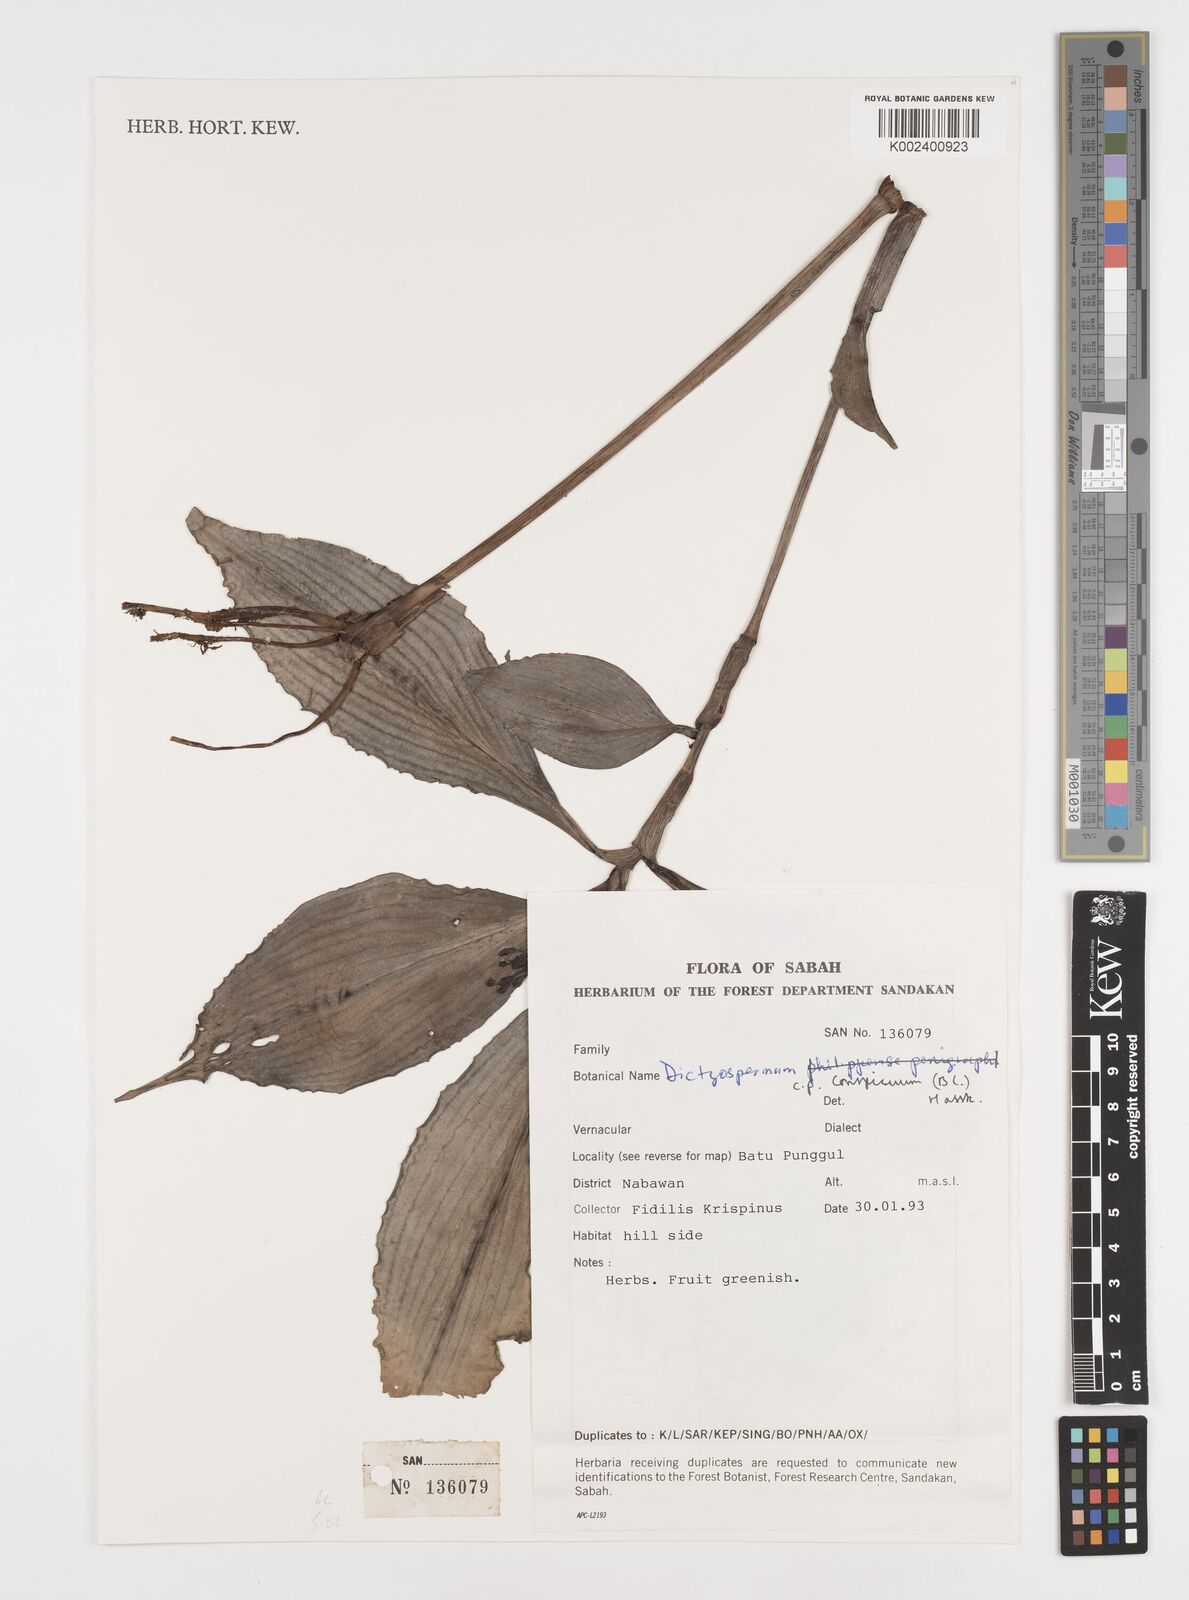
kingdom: Plantae
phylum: Tracheophyta
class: Liliopsida
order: Commelinales
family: Commelinaceae
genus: Dictyospermum
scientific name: Dictyospermum conspicuum
